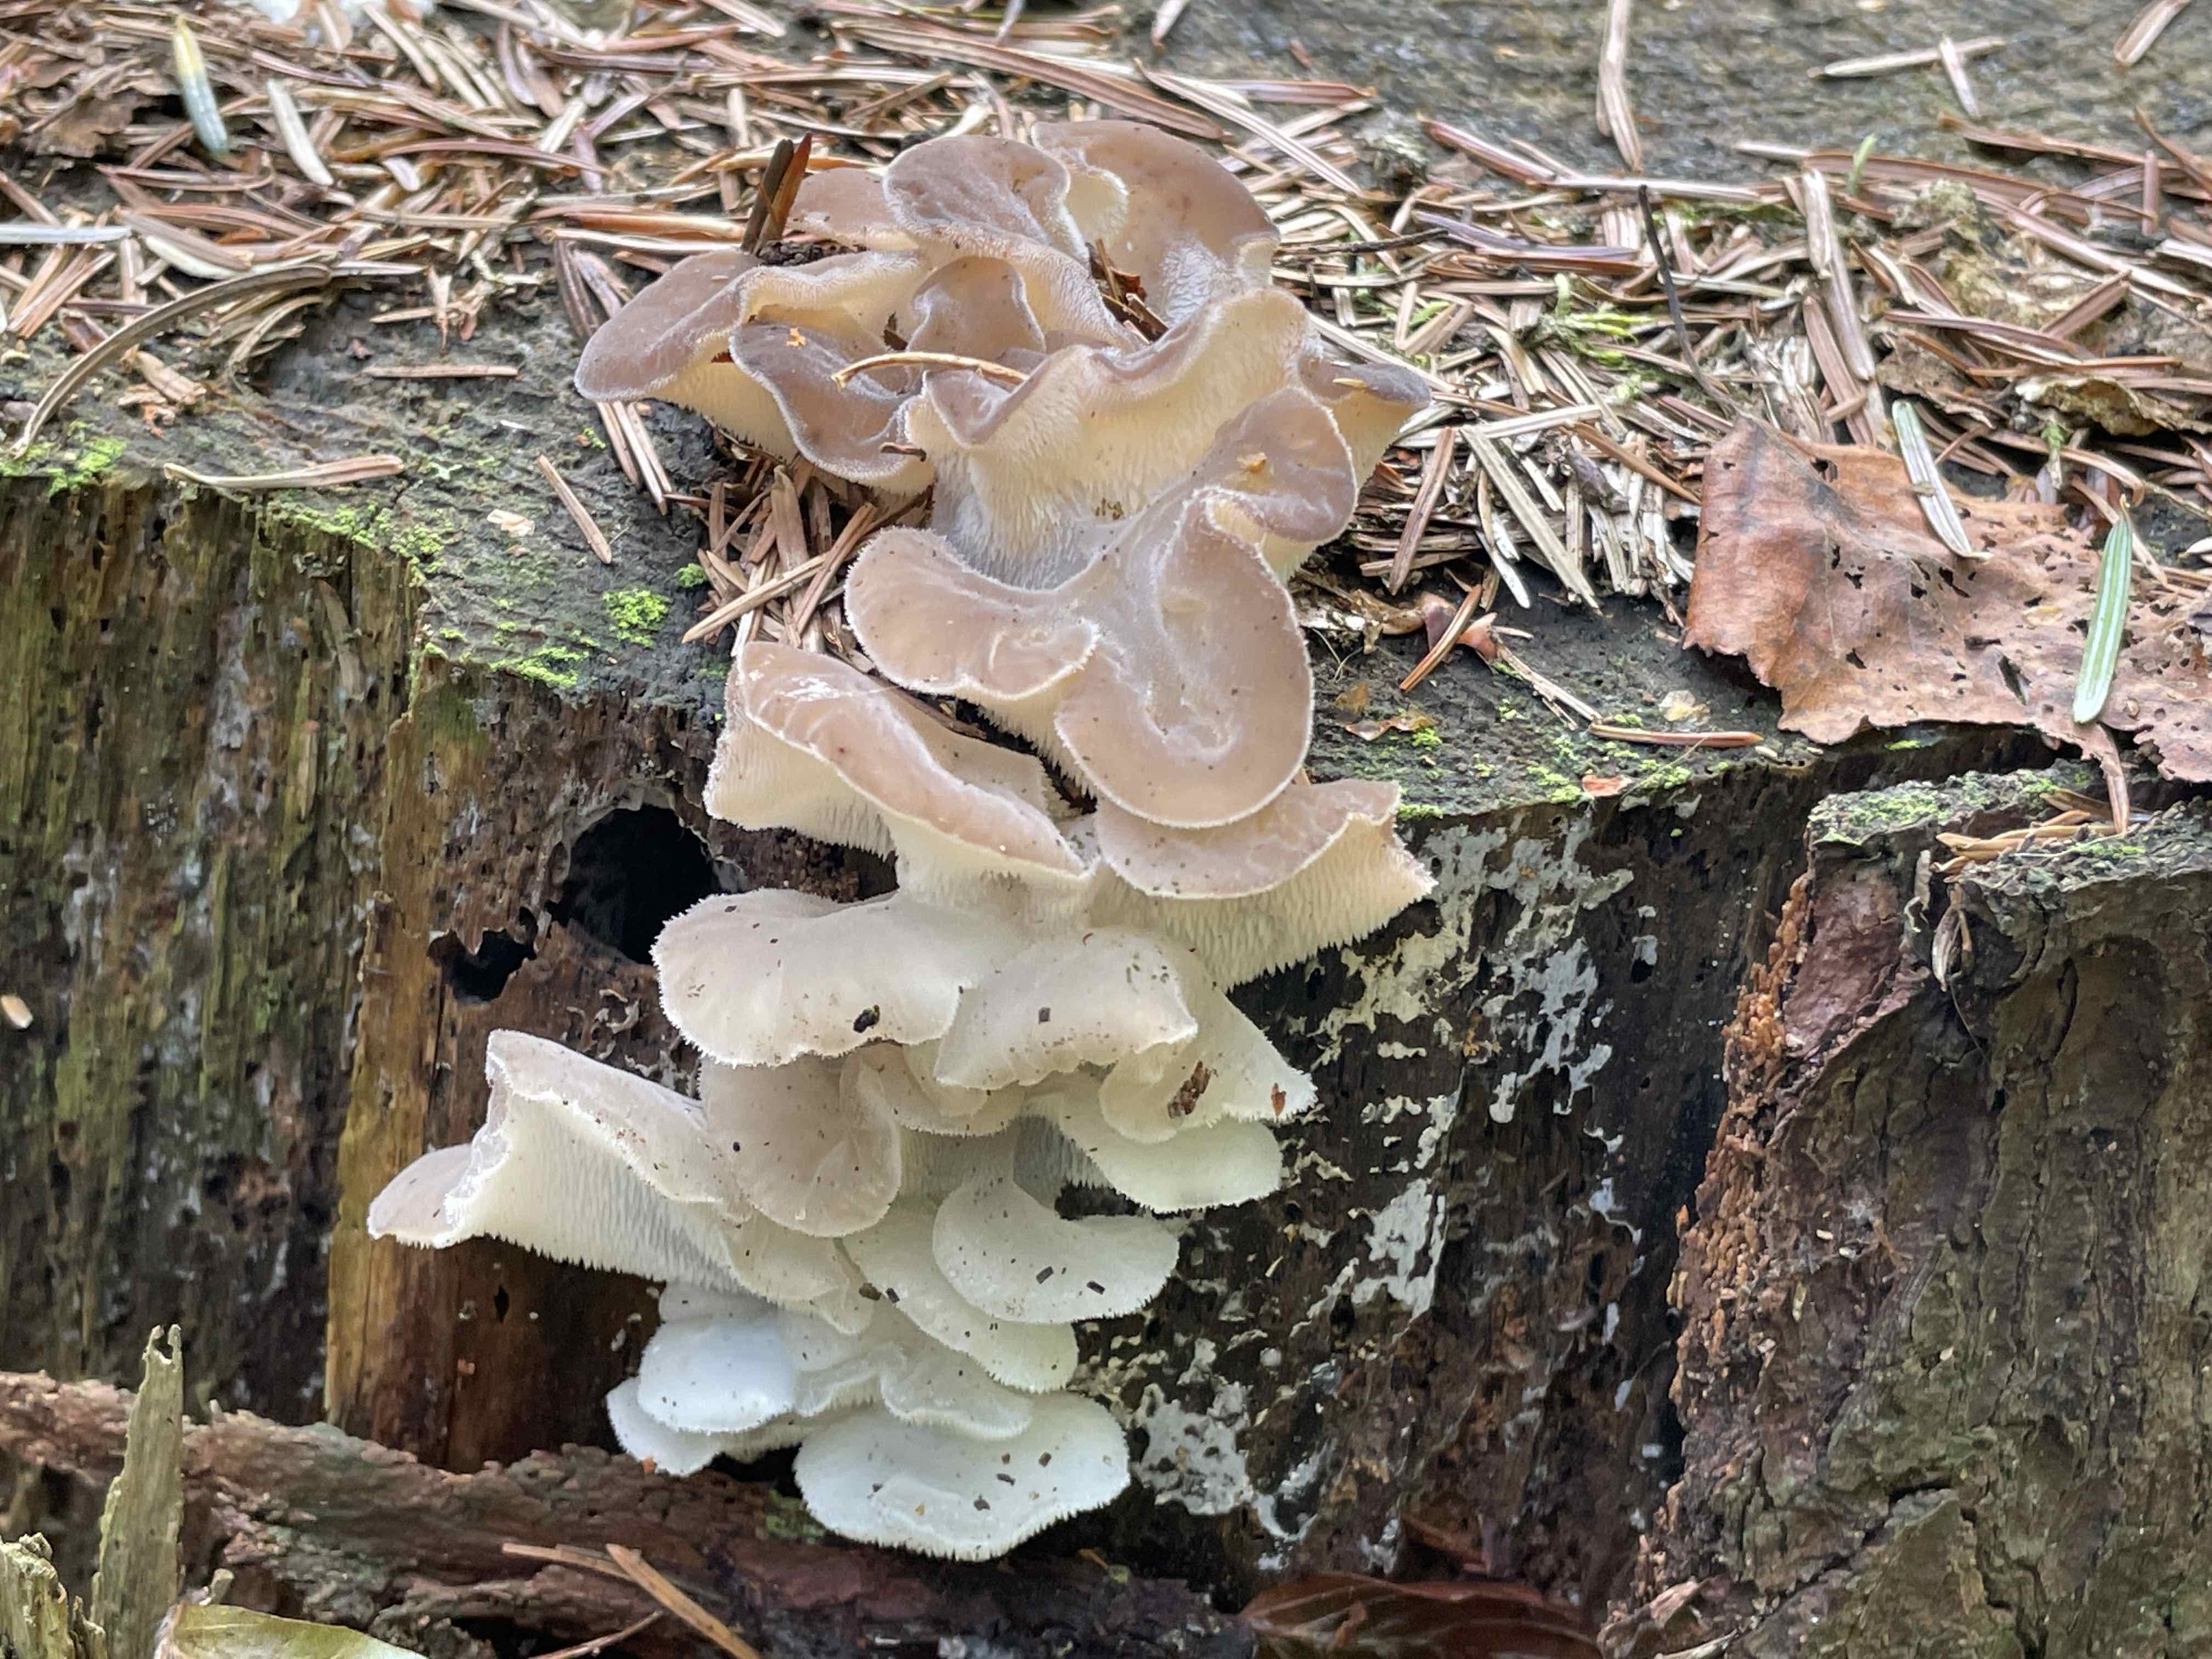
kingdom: Fungi
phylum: Basidiomycota
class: Agaricomycetes
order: Auriculariales
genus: Pseudohydnum
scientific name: Pseudohydnum gelatinosum
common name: bævretand
